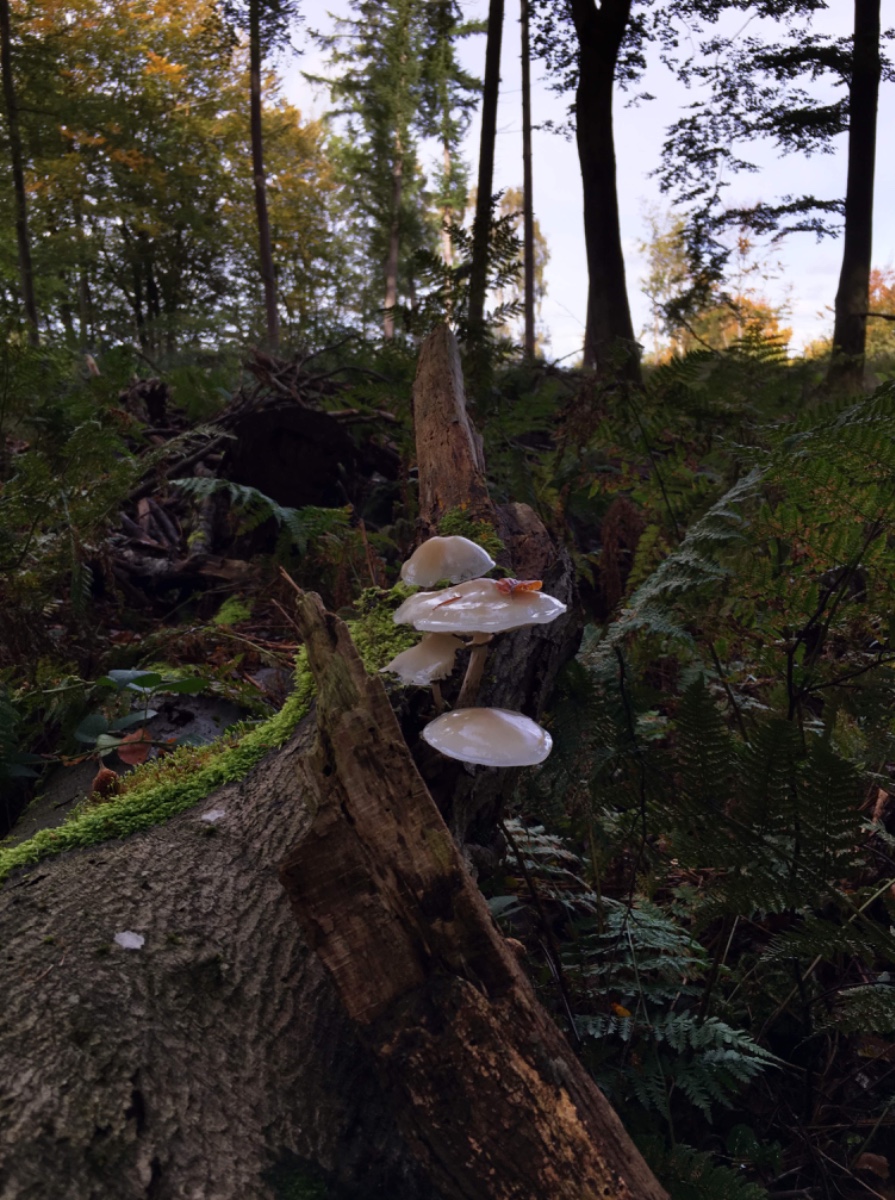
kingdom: Fungi
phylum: Basidiomycota
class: Agaricomycetes
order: Agaricales
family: Physalacriaceae
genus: Mucidula
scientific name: Mucidula mucida
